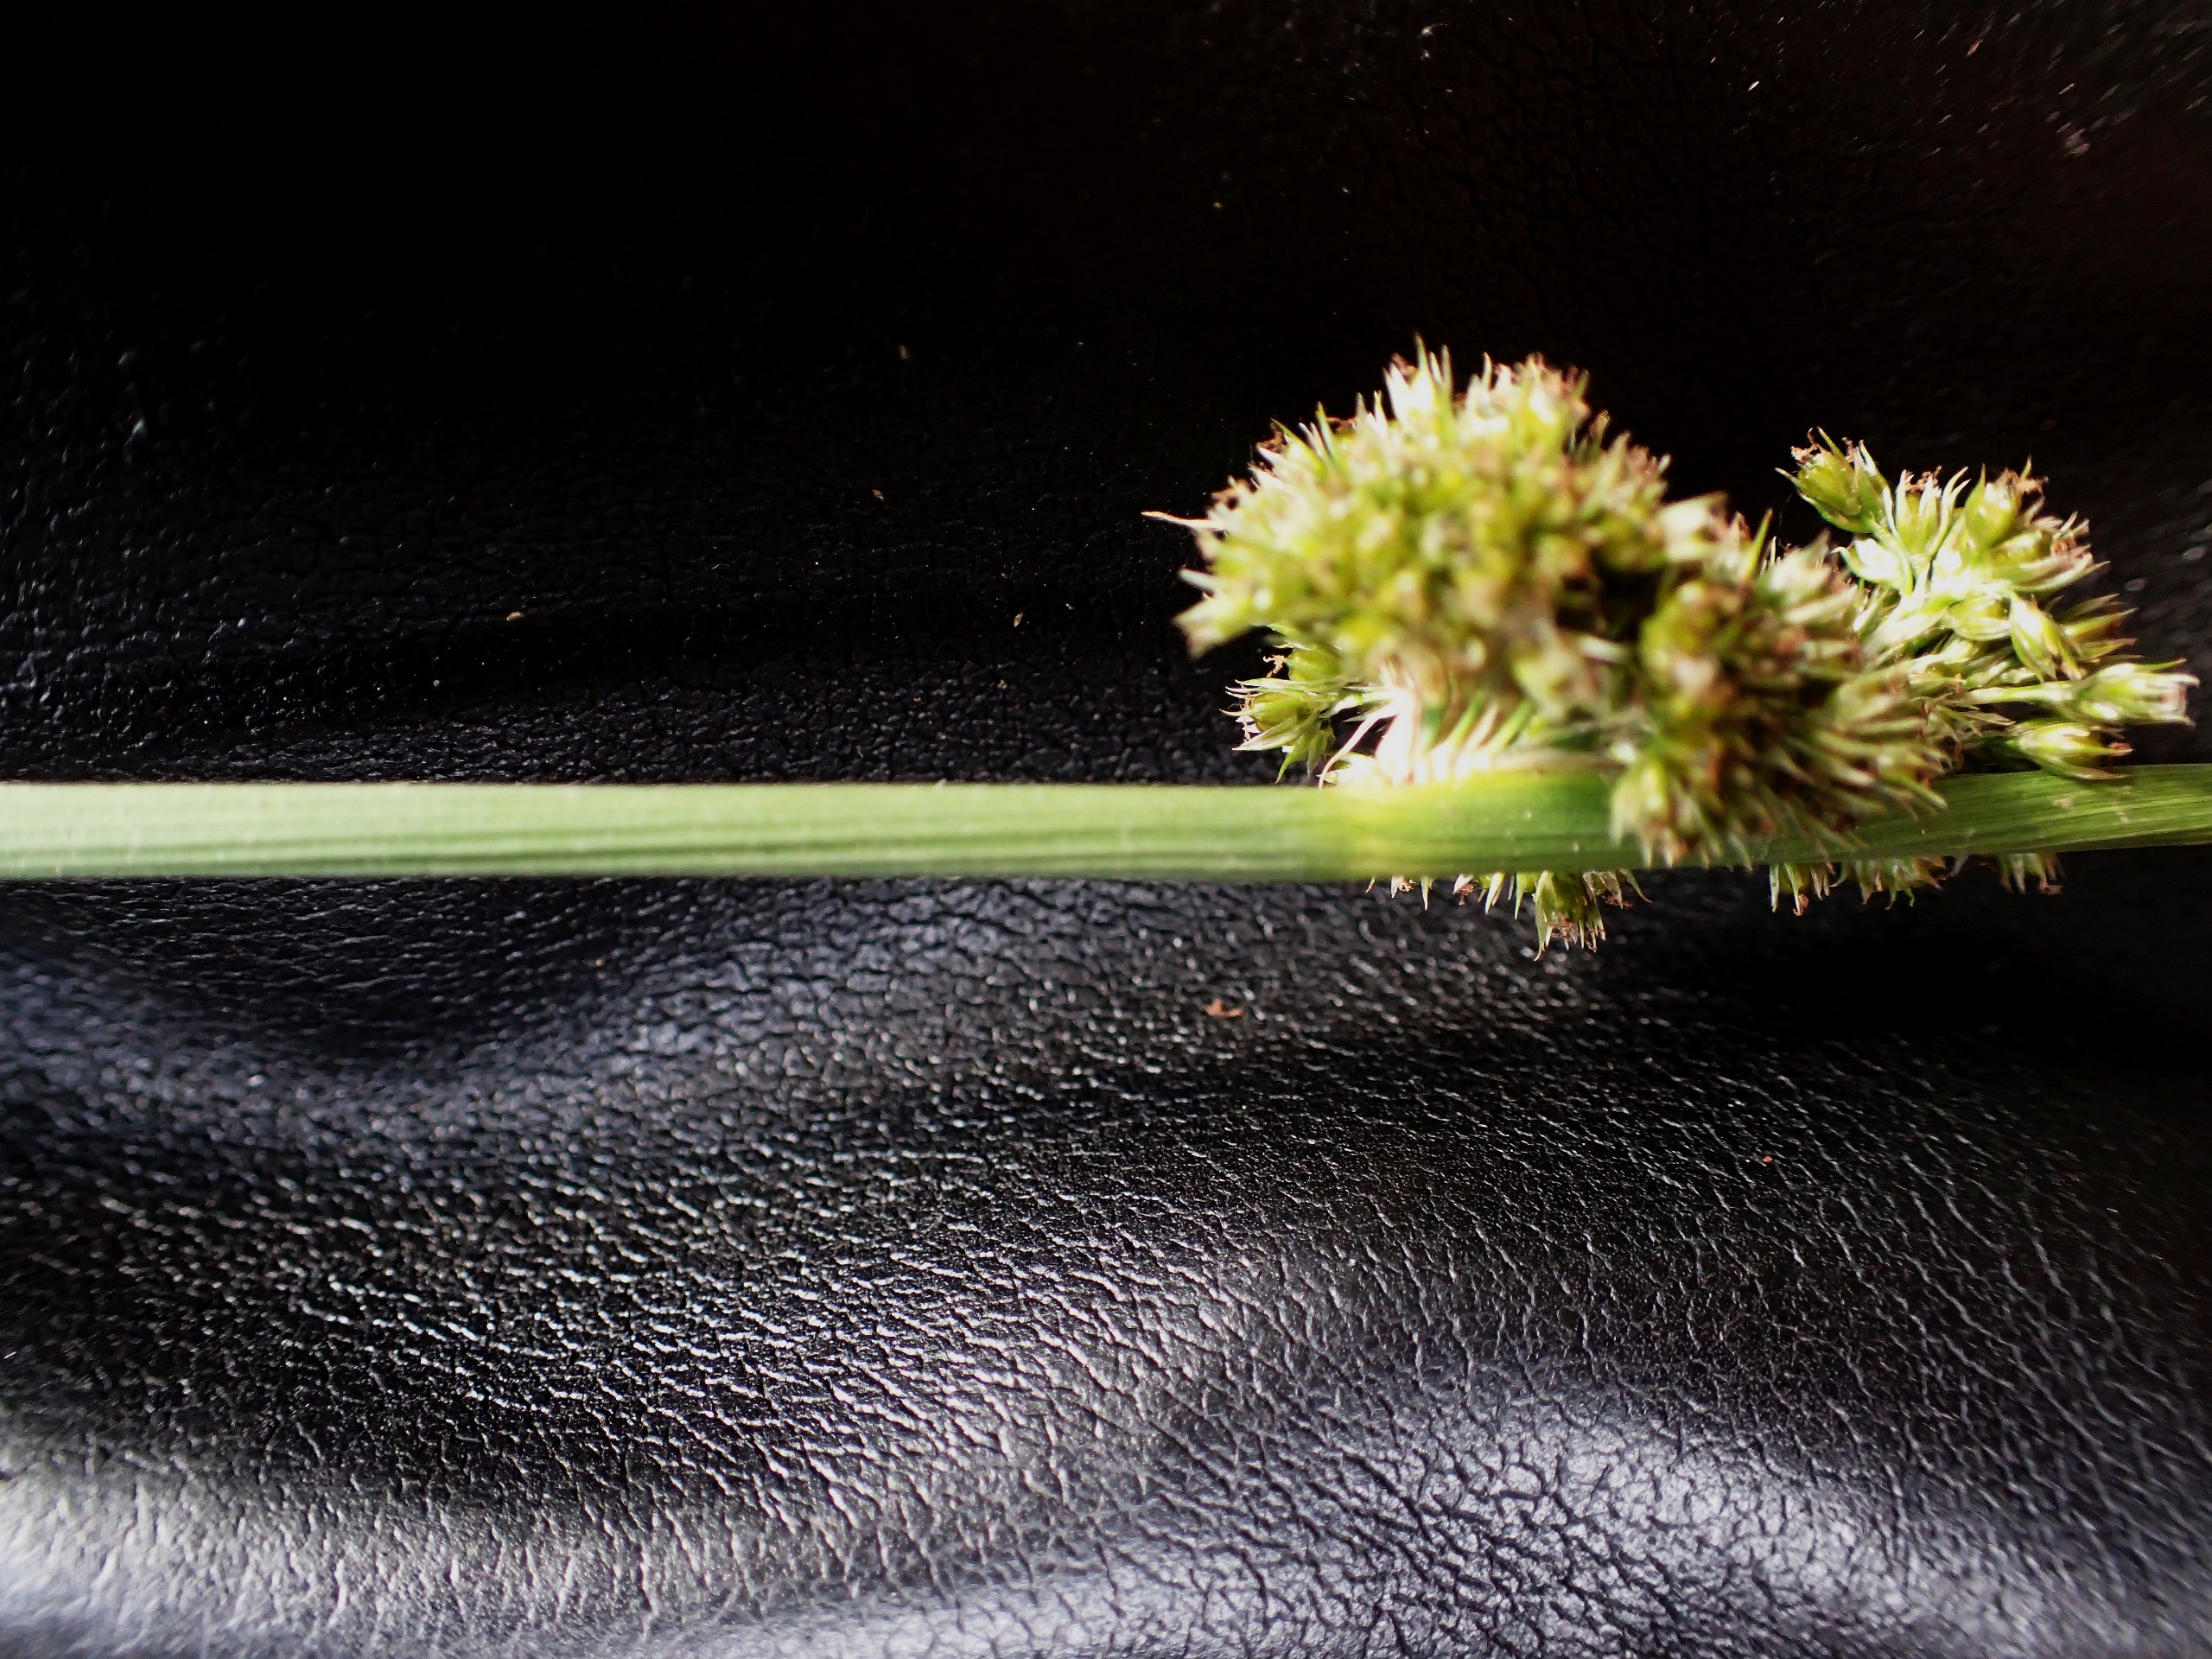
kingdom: Plantae
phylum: Tracheophyta
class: Liliopsida
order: Poales
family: Juncaceae
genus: Juncus
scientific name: Juncus conglomeratus
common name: Knop-siv
